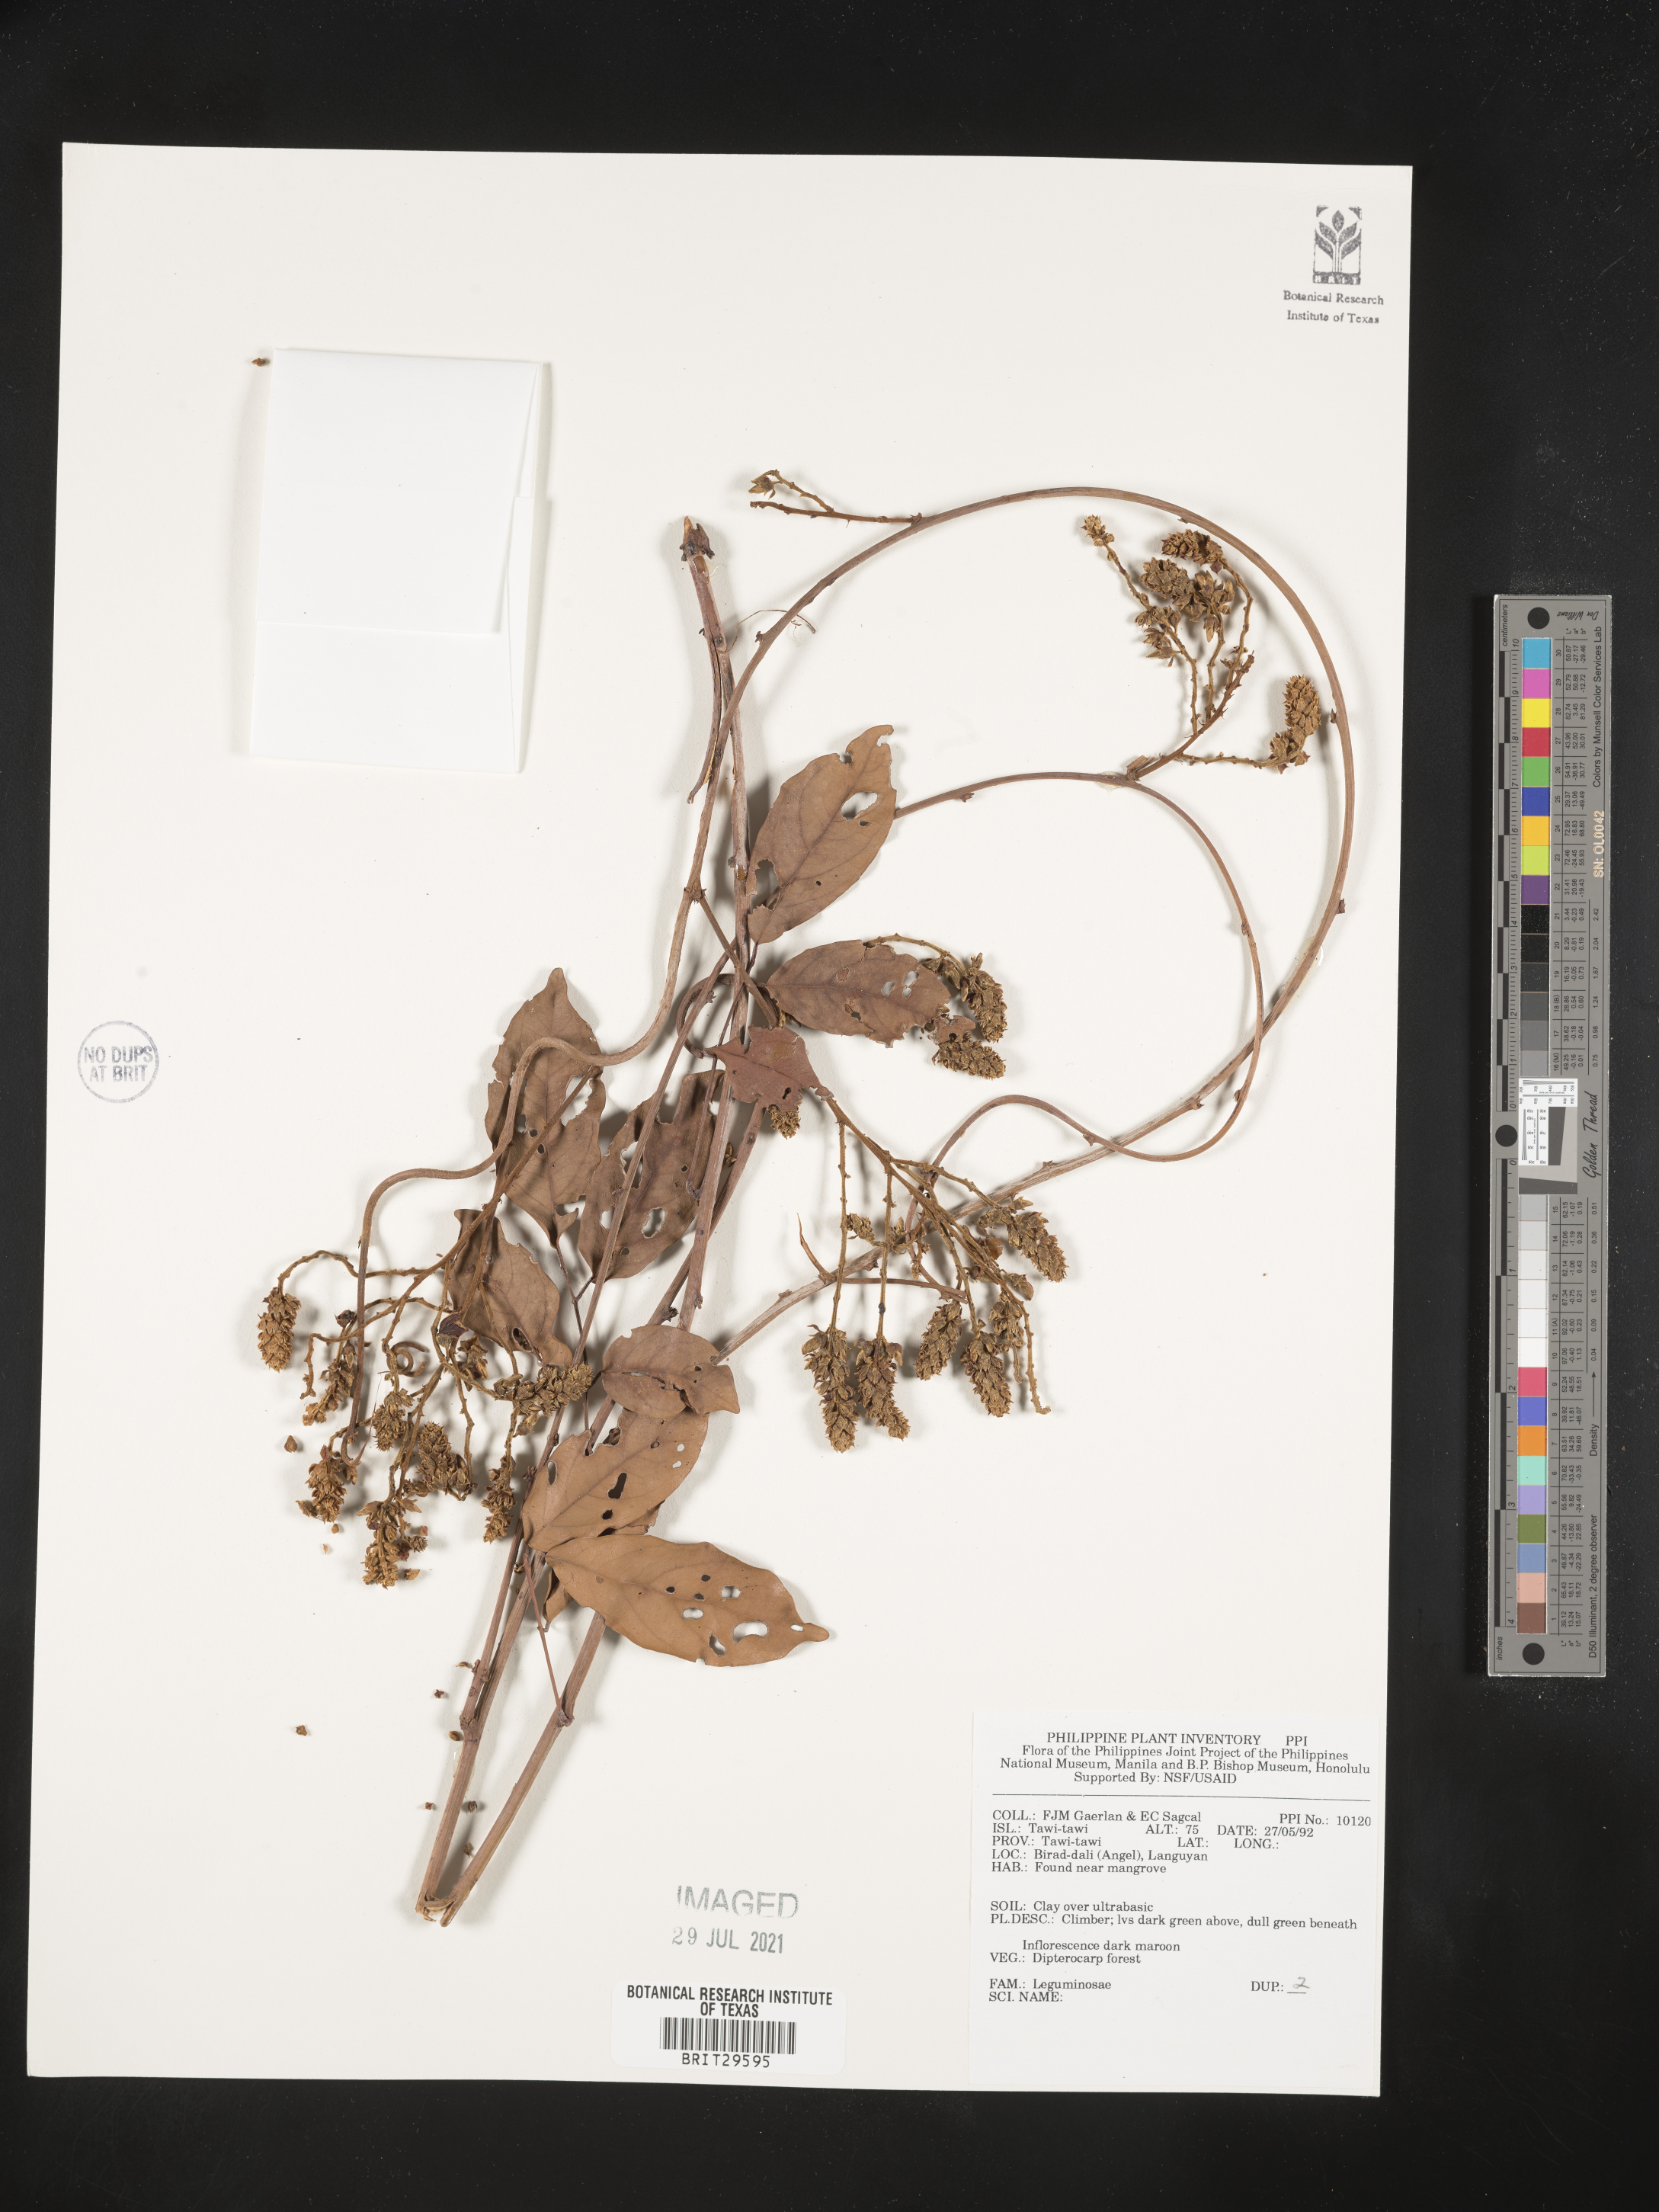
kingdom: Plantae
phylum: Tracheophyta
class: Magnoliopsida
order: Fabales
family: Fabaceae
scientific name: Fabaceae
